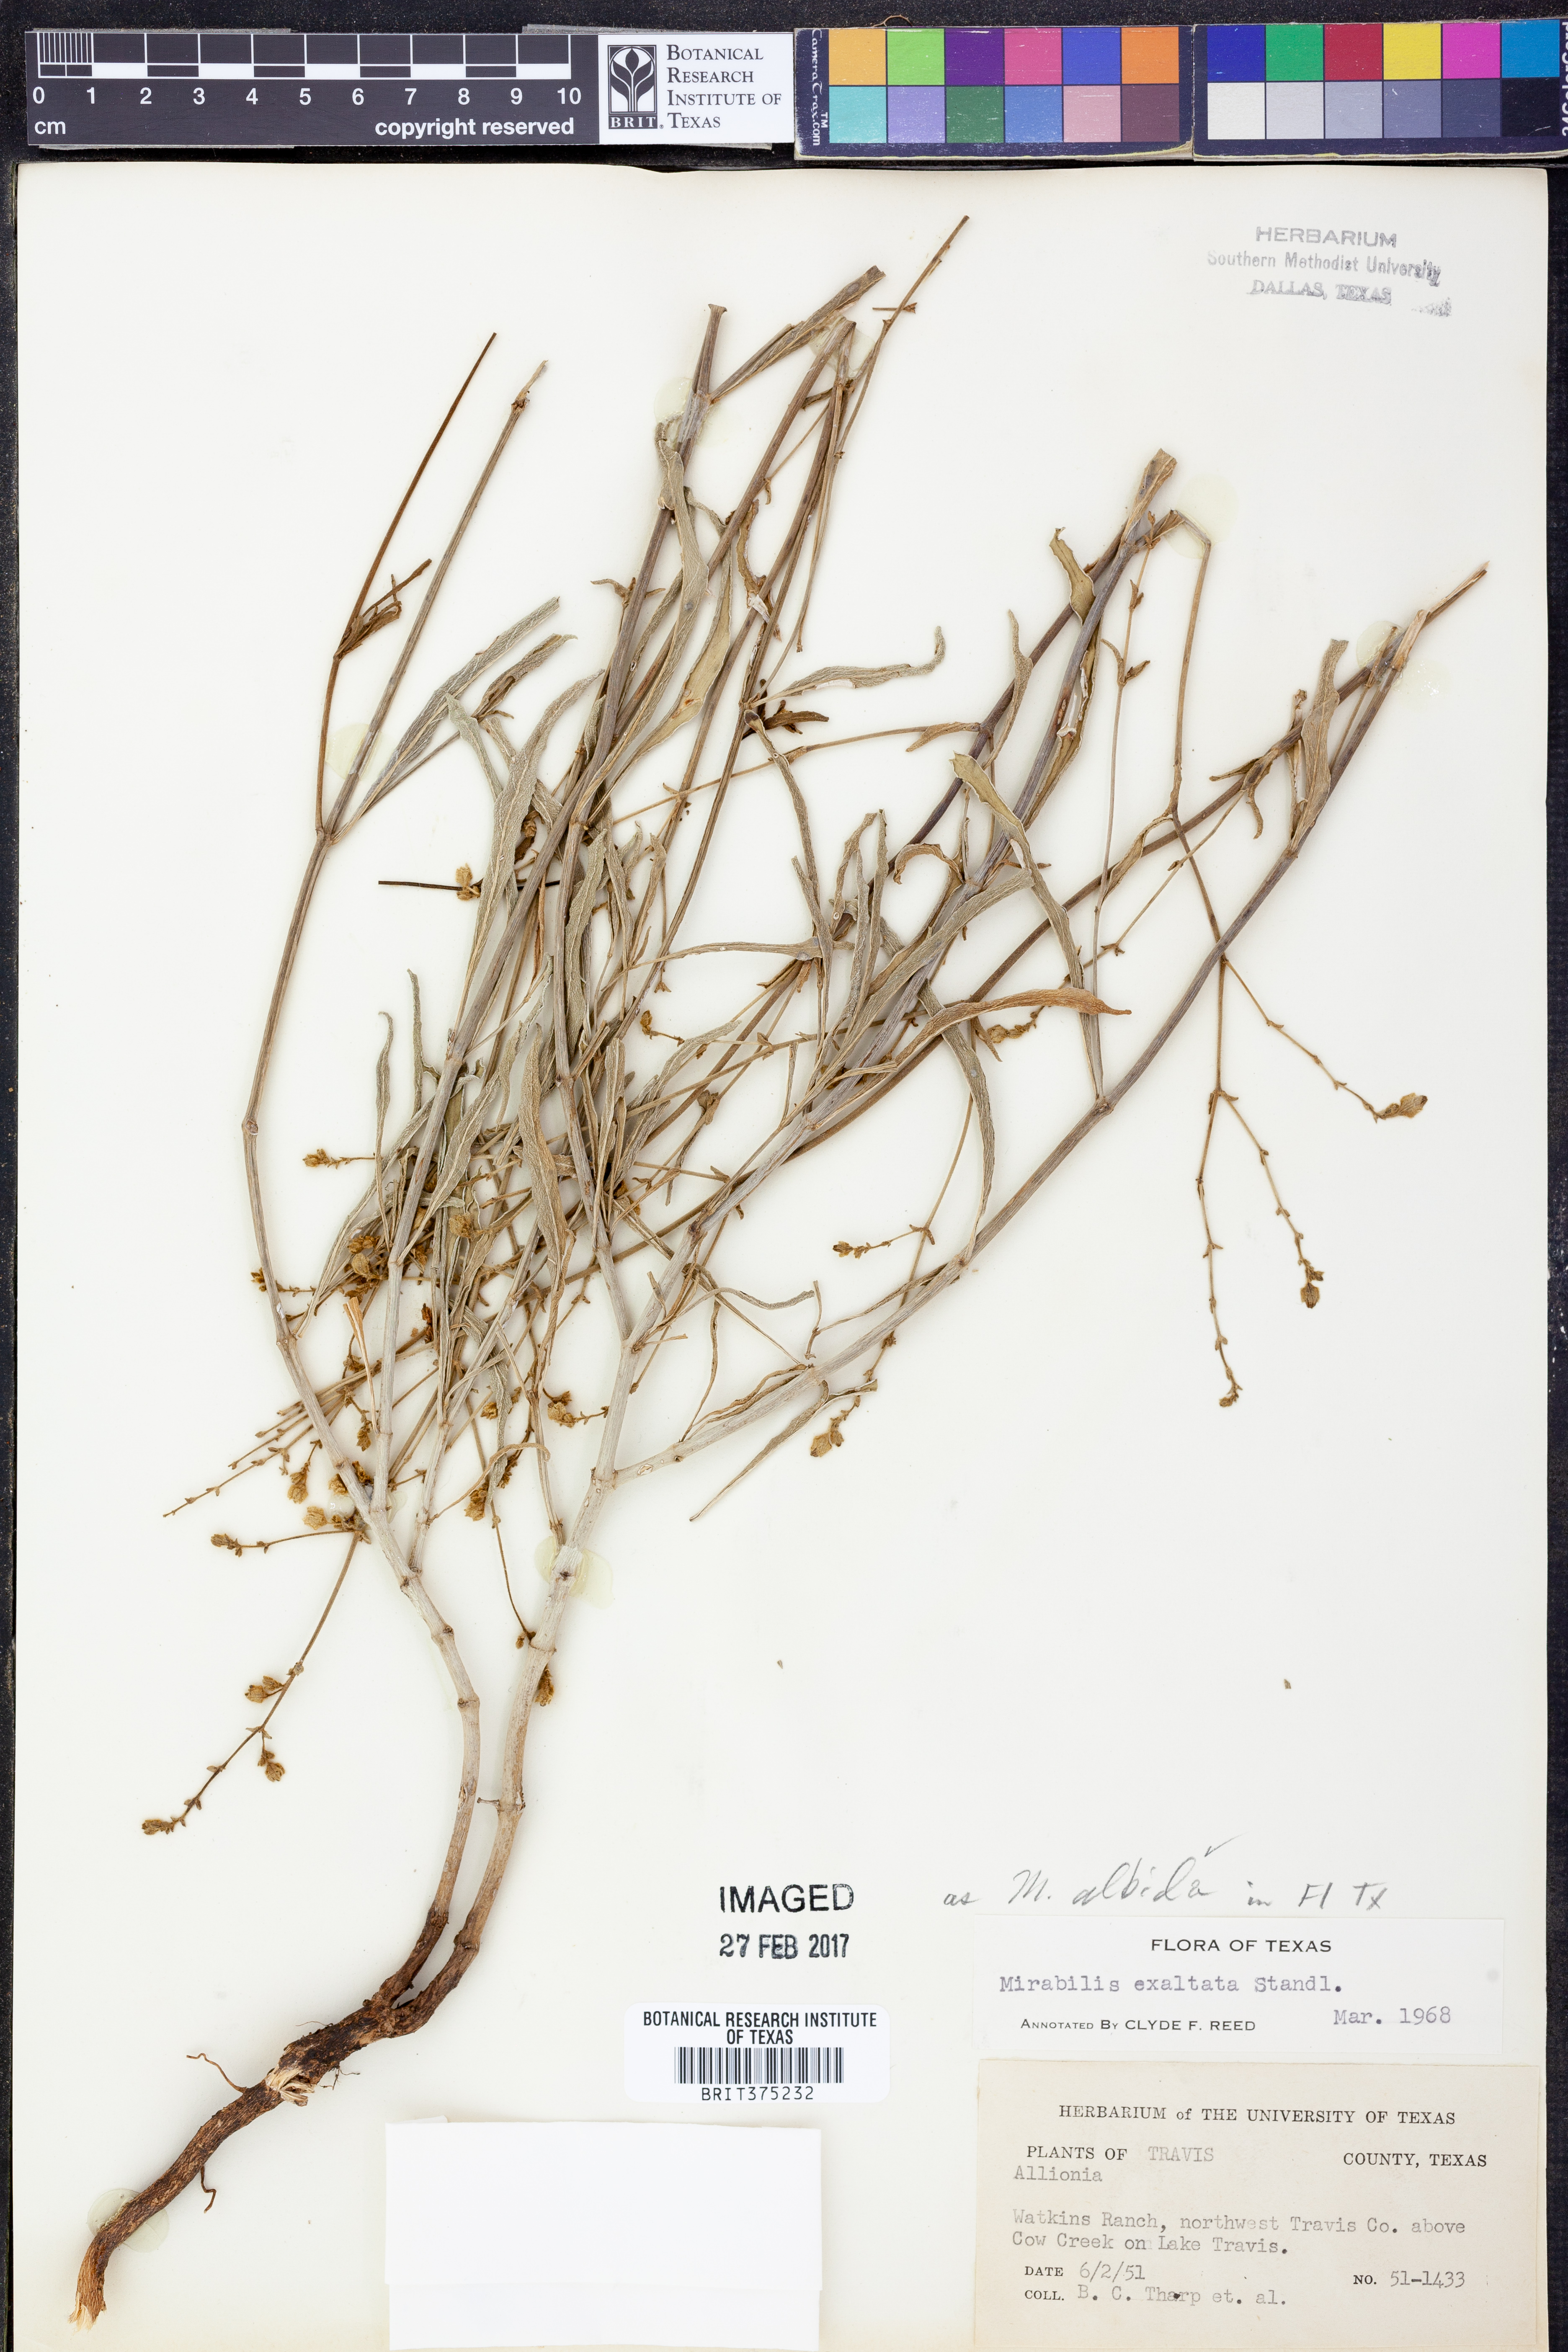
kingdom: Plantae
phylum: Tracheophyta
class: Magnoliopsida
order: Caryophyllales
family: Nyctaginaceae
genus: Mirabilis
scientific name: Mirabilis albida
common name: Hairy four-o'clock
